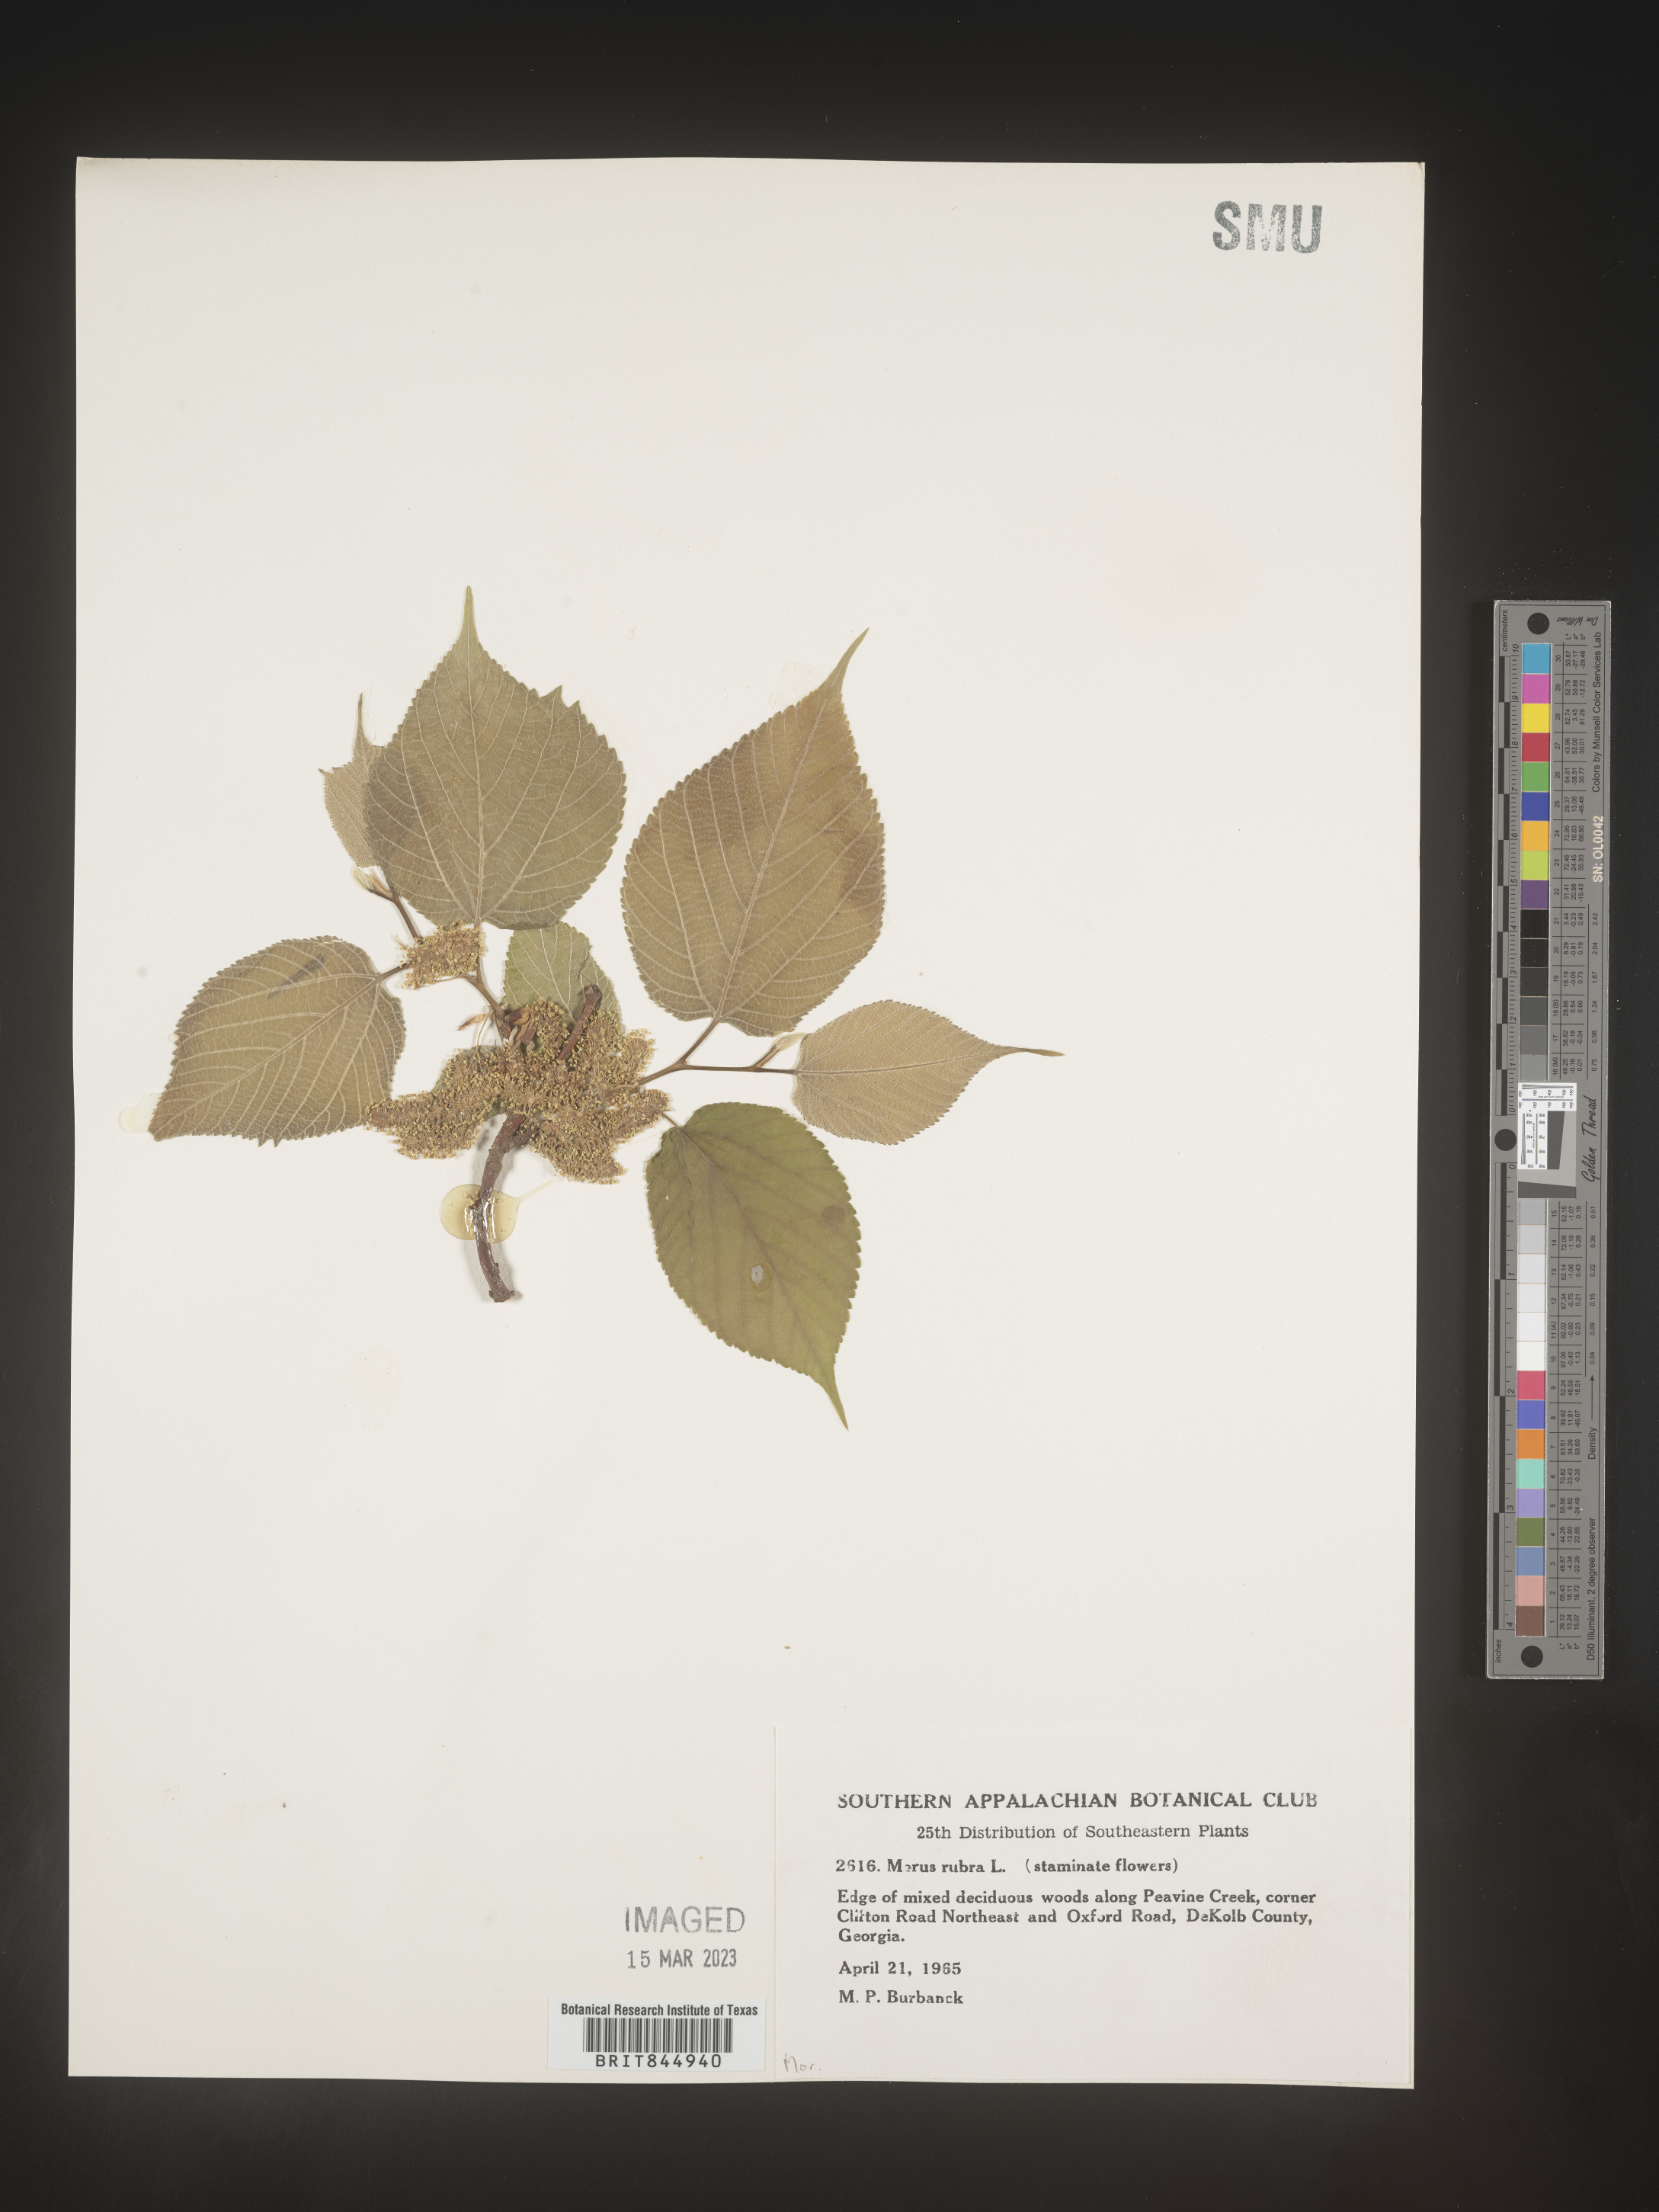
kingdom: Plantae
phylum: Tracheophyta
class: Magnoliopsida
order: Rosales
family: Moraceae
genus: Morus
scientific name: Morus rubra
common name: Red mulberry
